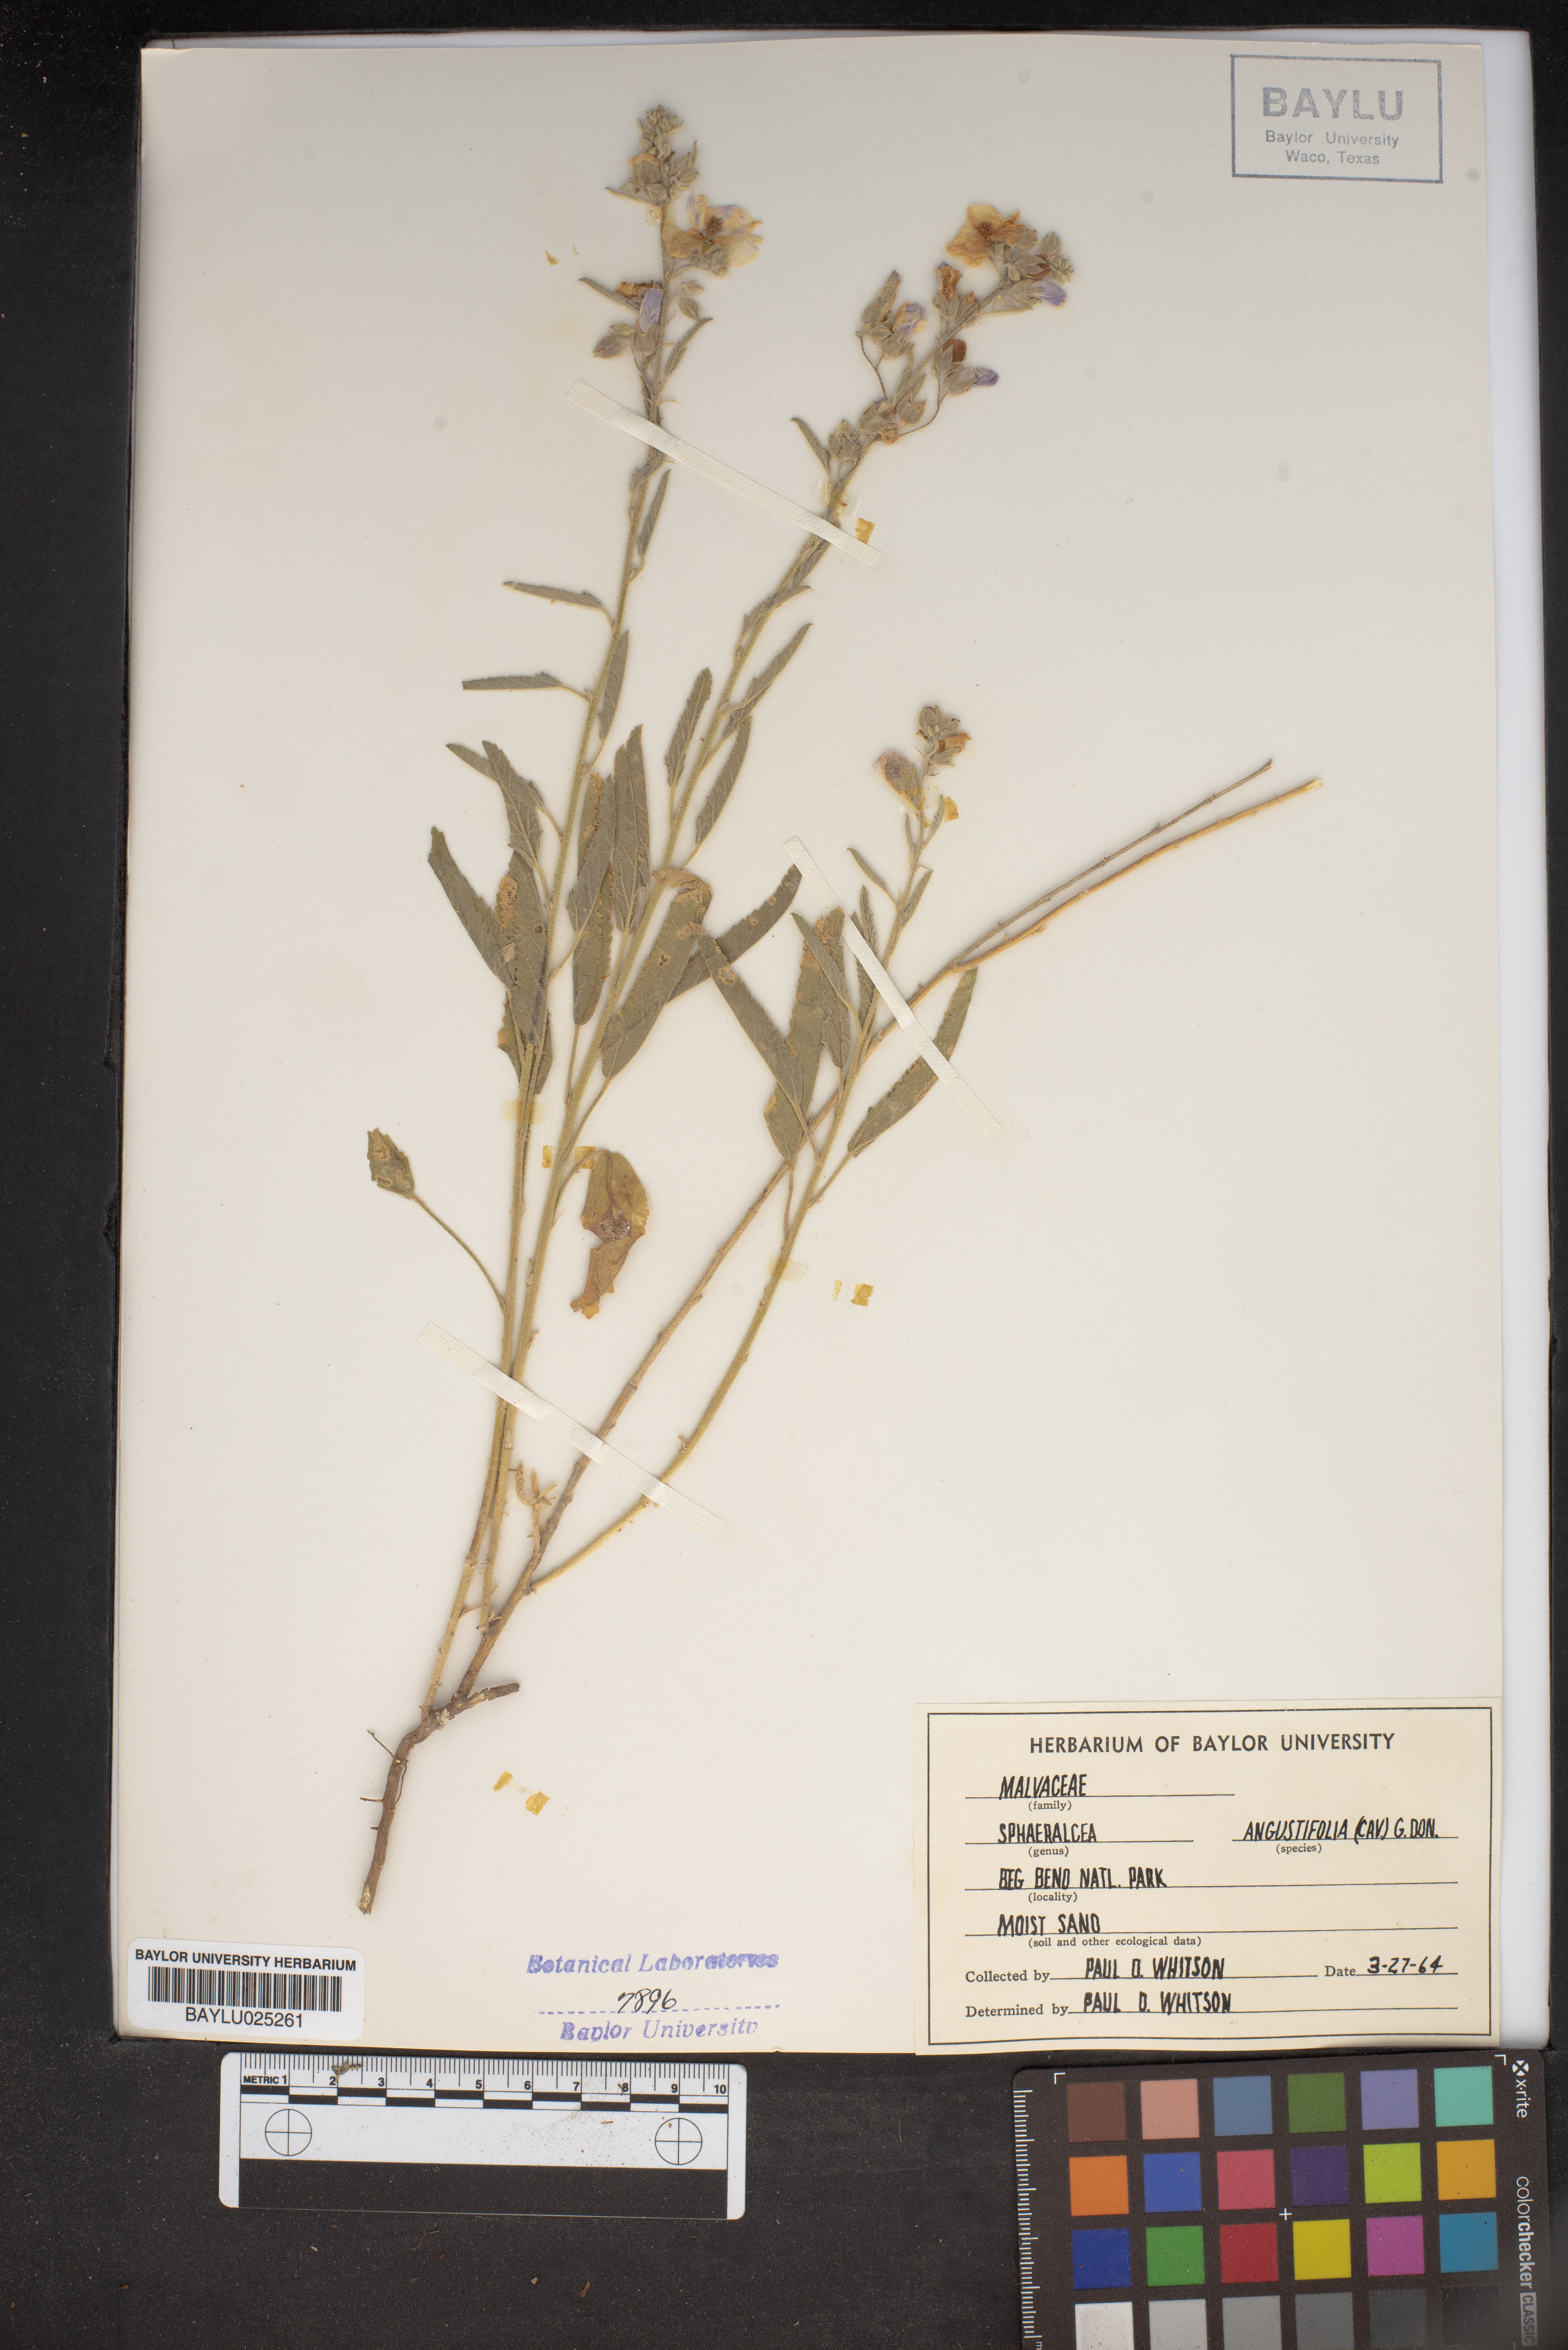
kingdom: Plantae
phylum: Tracheophyta
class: Magnoliopsida
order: Malvales
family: Malvaceae
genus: Sphaeralcea
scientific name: Sphaeralcea angustifolia
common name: Copper globe-mallow
